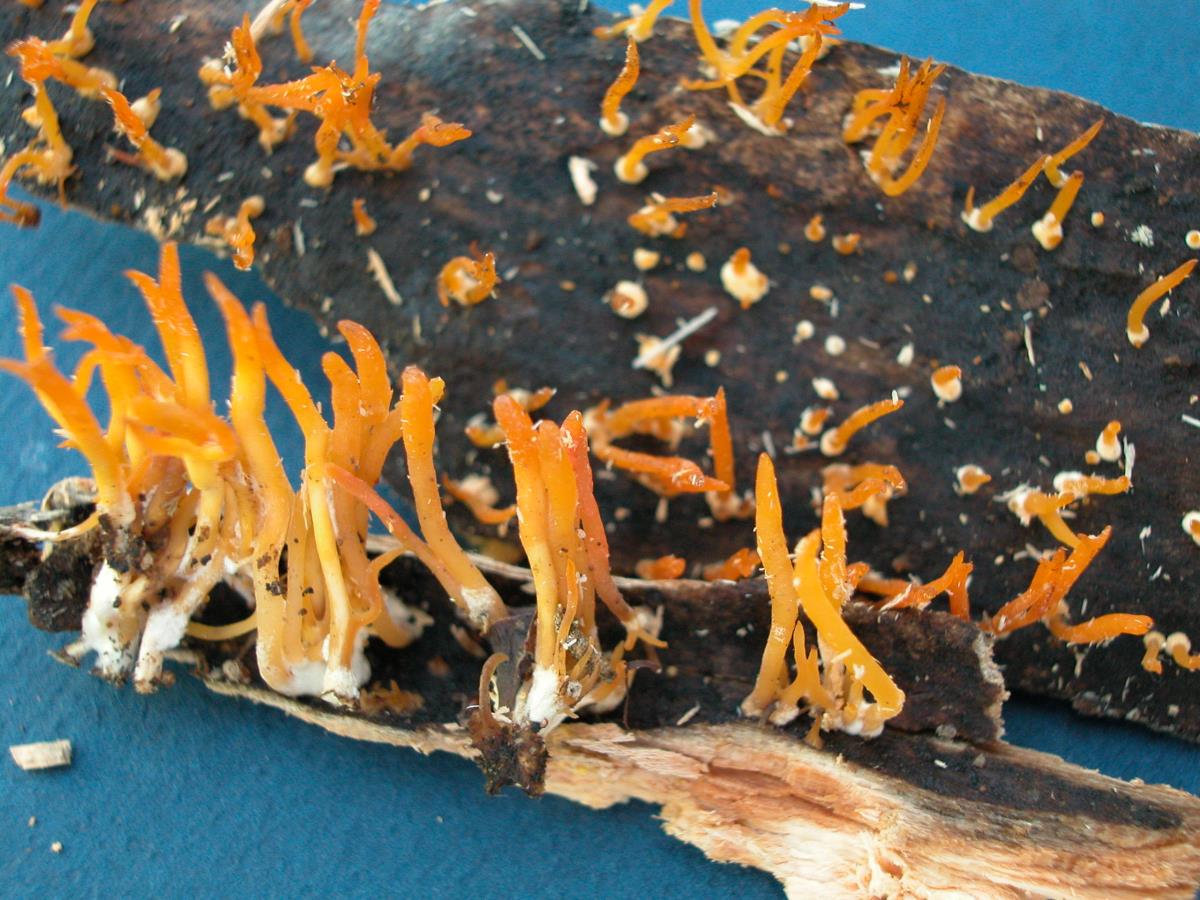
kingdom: Fungi
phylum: Basidiomycota
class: Dacrymycetes
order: Dacrymycetales
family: Dacrymycetaceae
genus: Calocera
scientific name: Calocera cornea
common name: Small stagshorn
